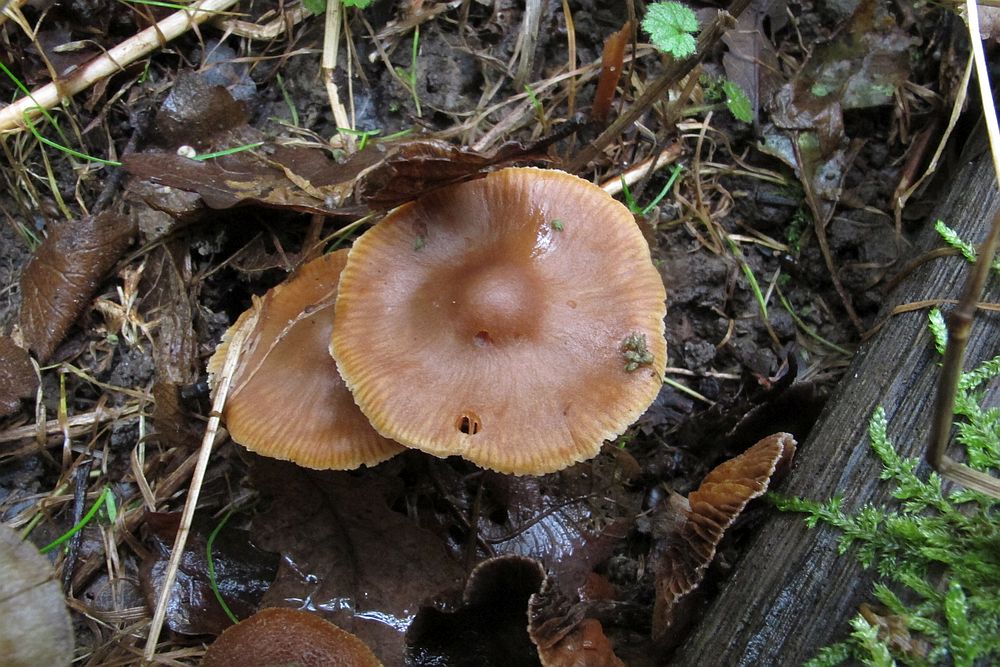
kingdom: Fungi
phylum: Basidiomycota
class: Agaricomycetes
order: Agaricales
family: Cortinariaceae
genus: Cortinarius
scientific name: Cortinarius
